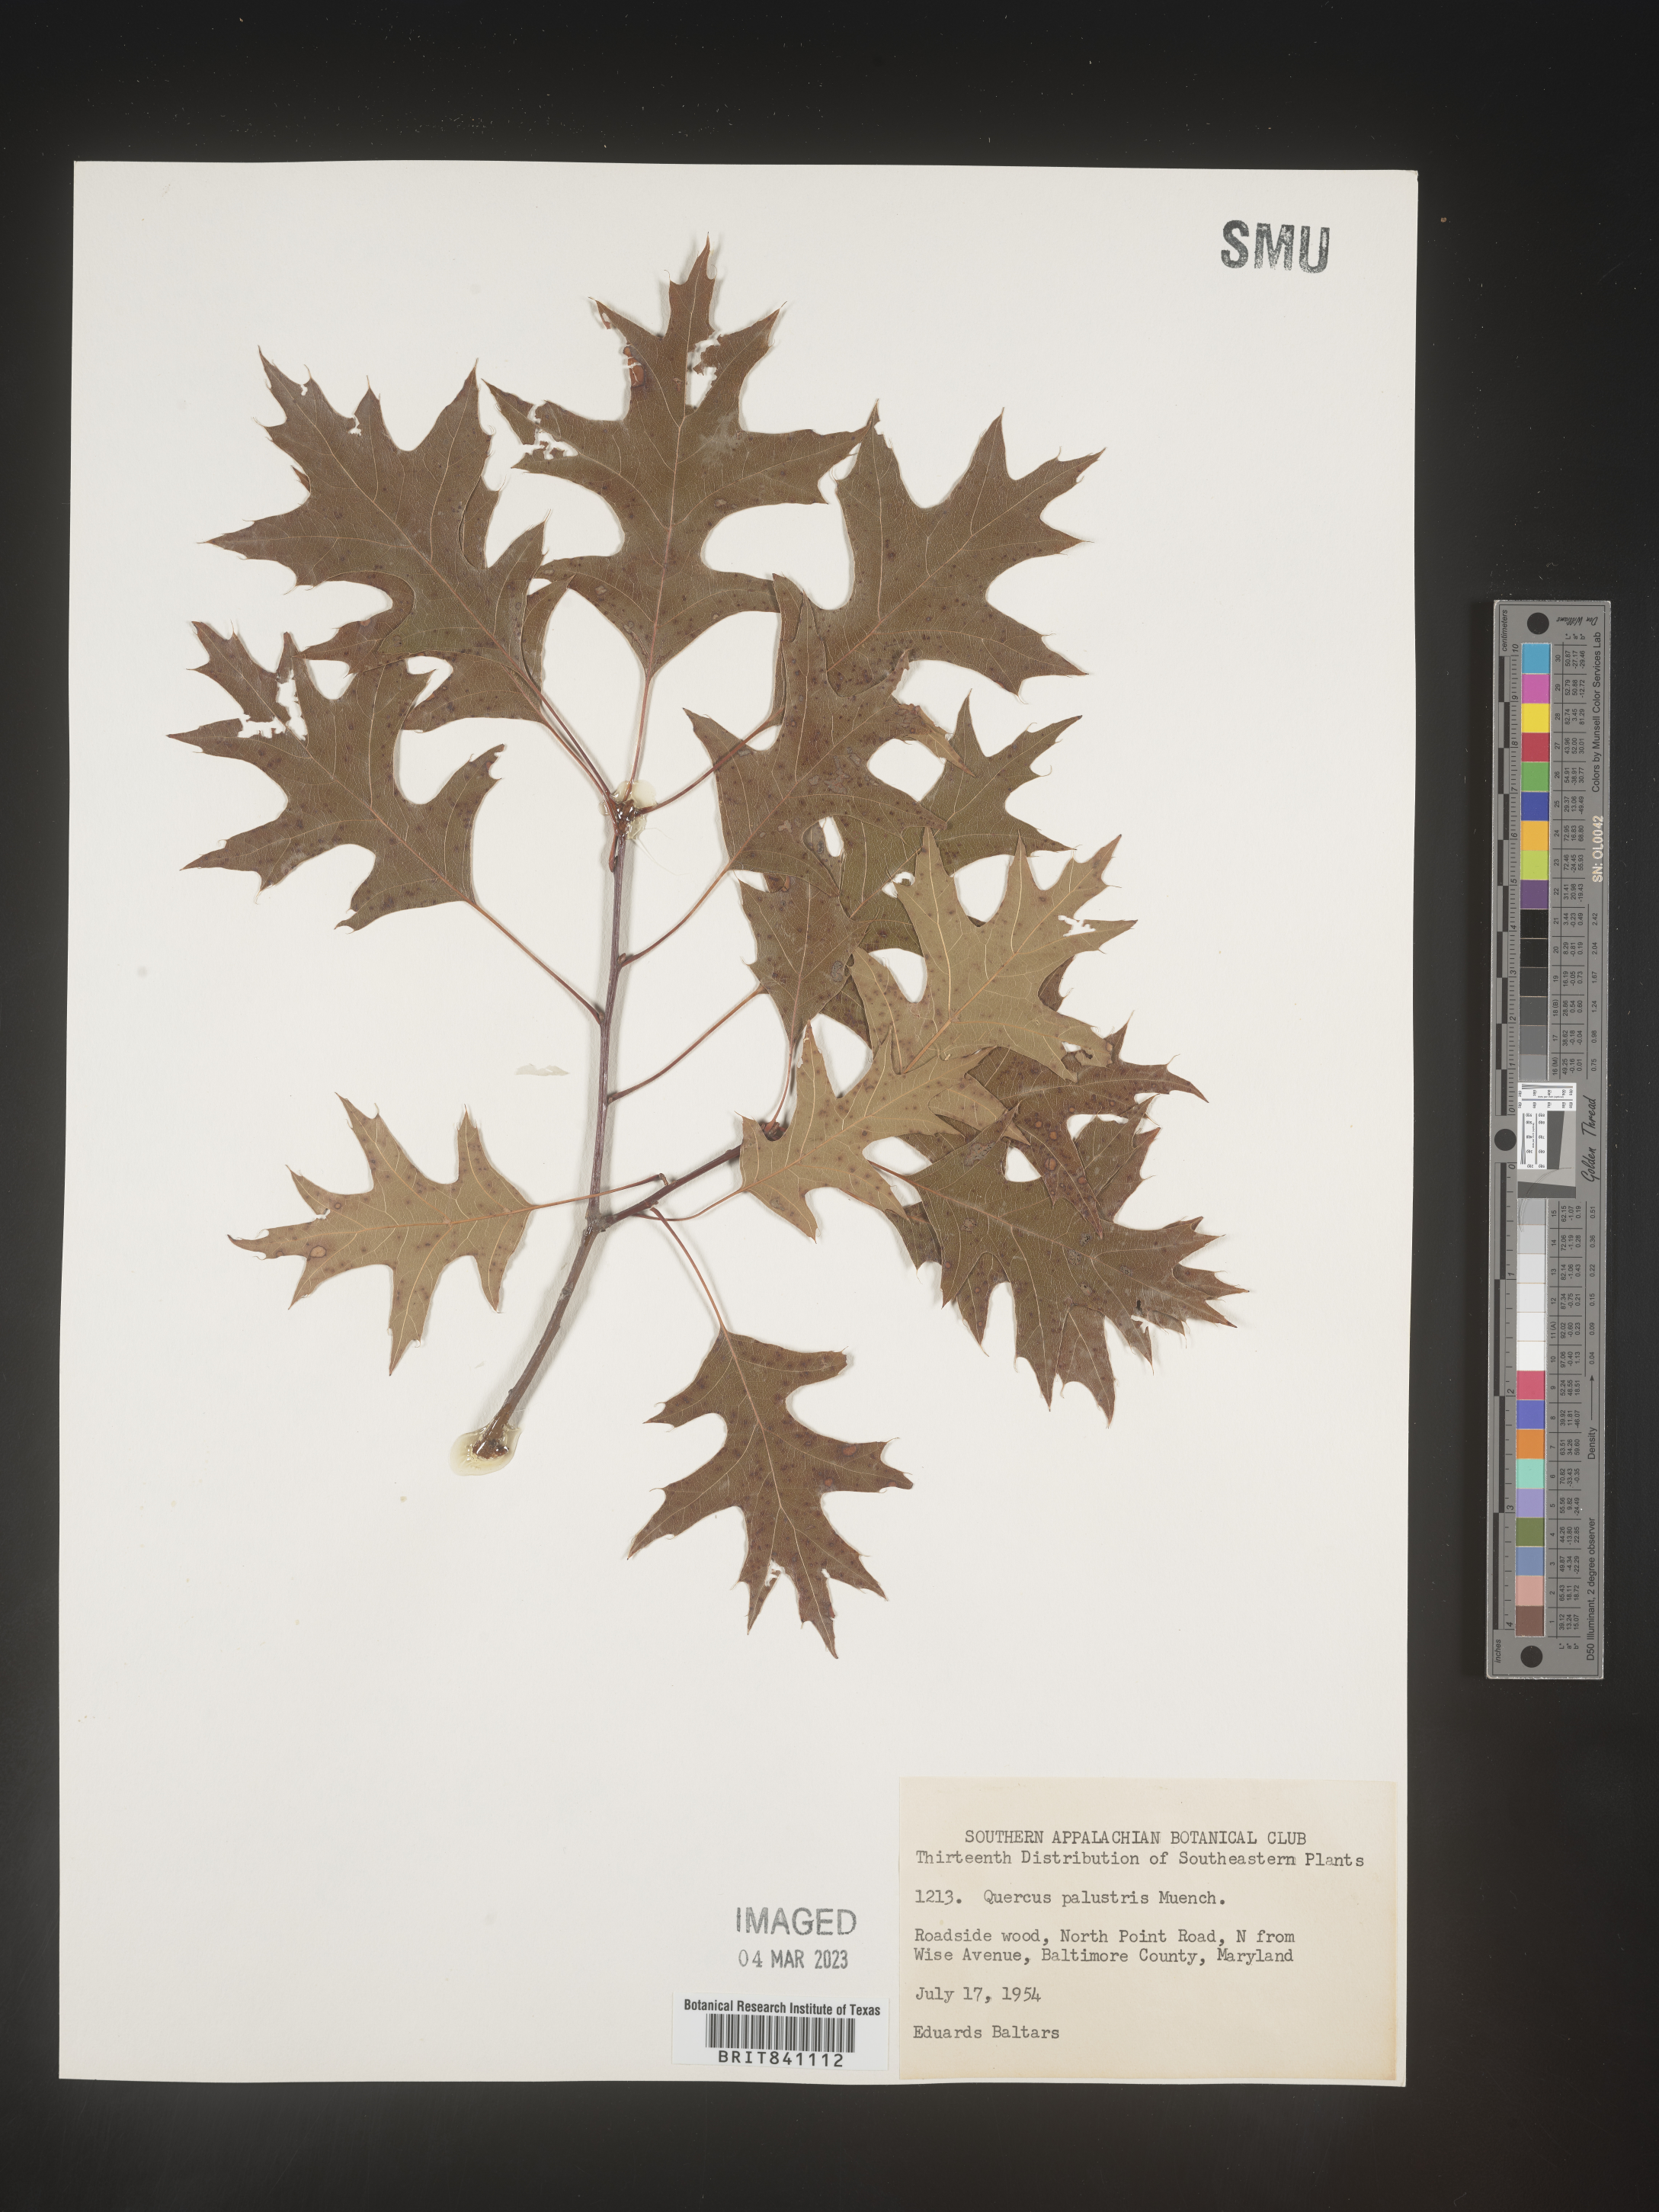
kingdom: Plantae
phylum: Tracheophyta
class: Magnoliopsida
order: Fagales
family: Fagaceae
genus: Quercus
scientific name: Quercus palustris
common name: Pin oak
